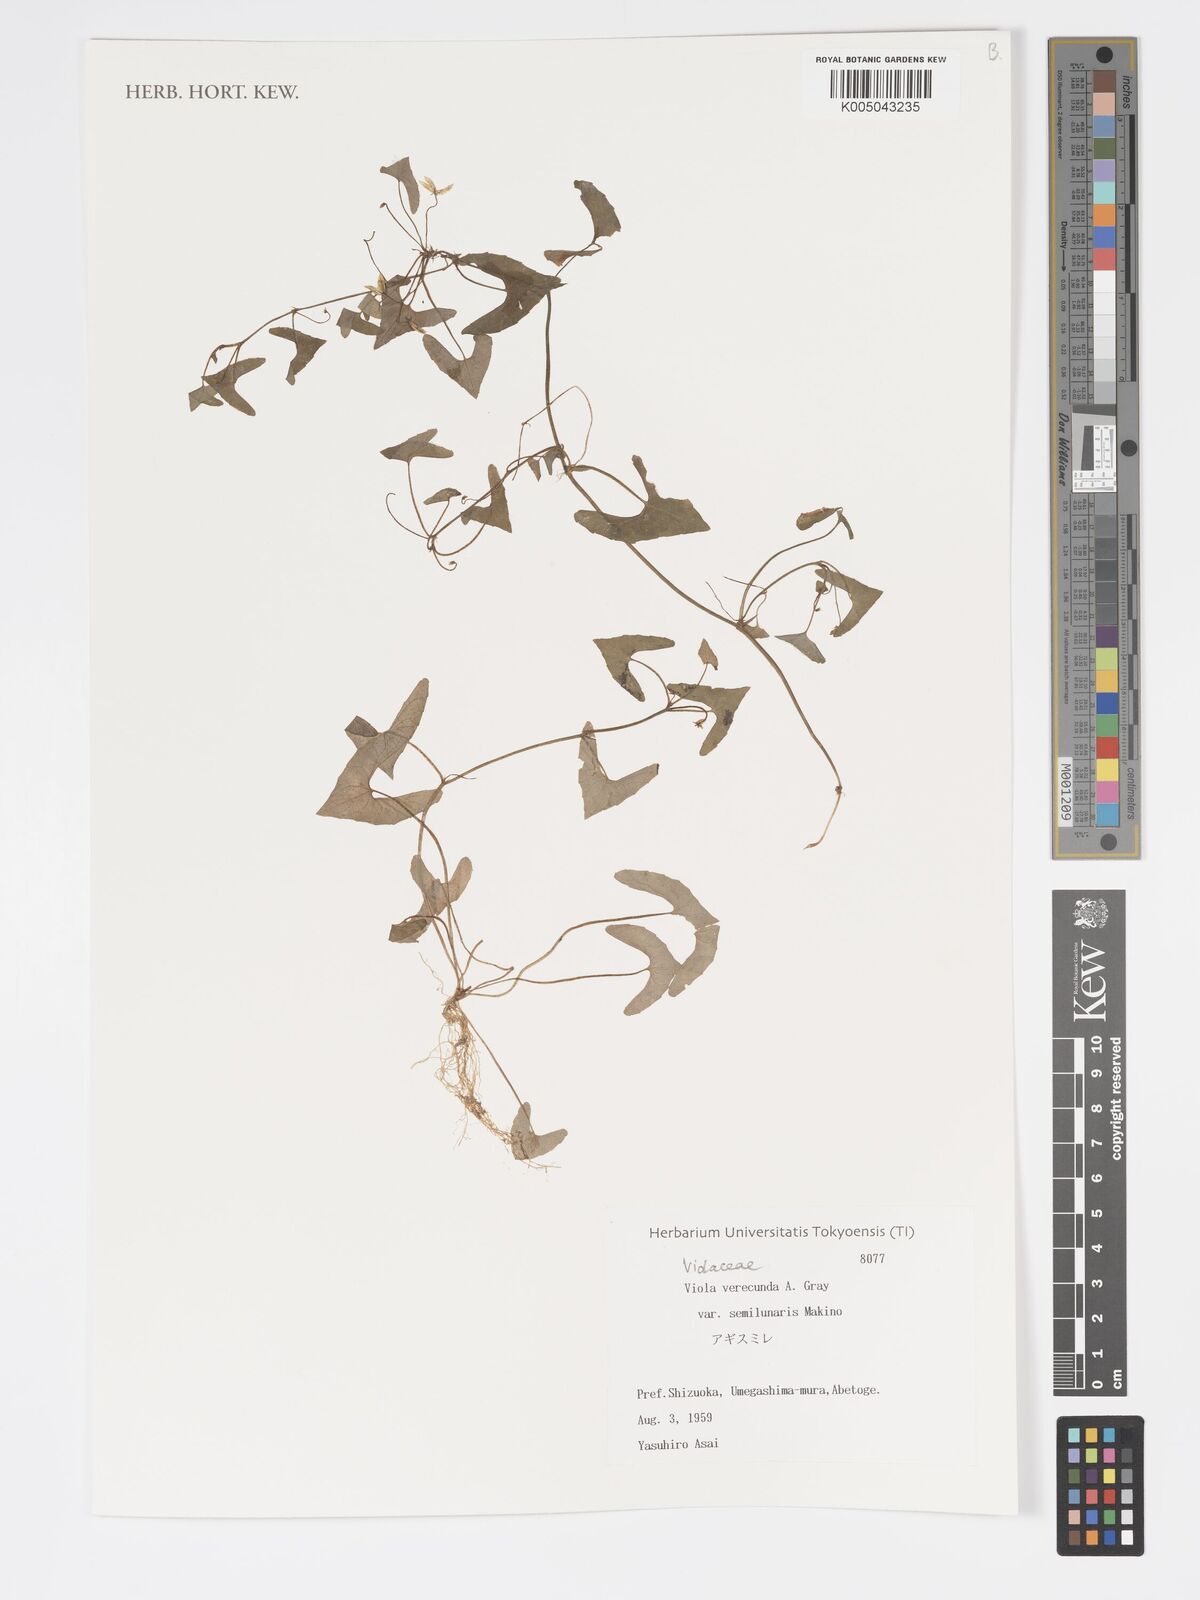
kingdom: Plantae
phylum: Tracheophyta
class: Magnoliopsida
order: Malpighiales
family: Violaceae
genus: Viola
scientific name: Viola hamiltoniana
